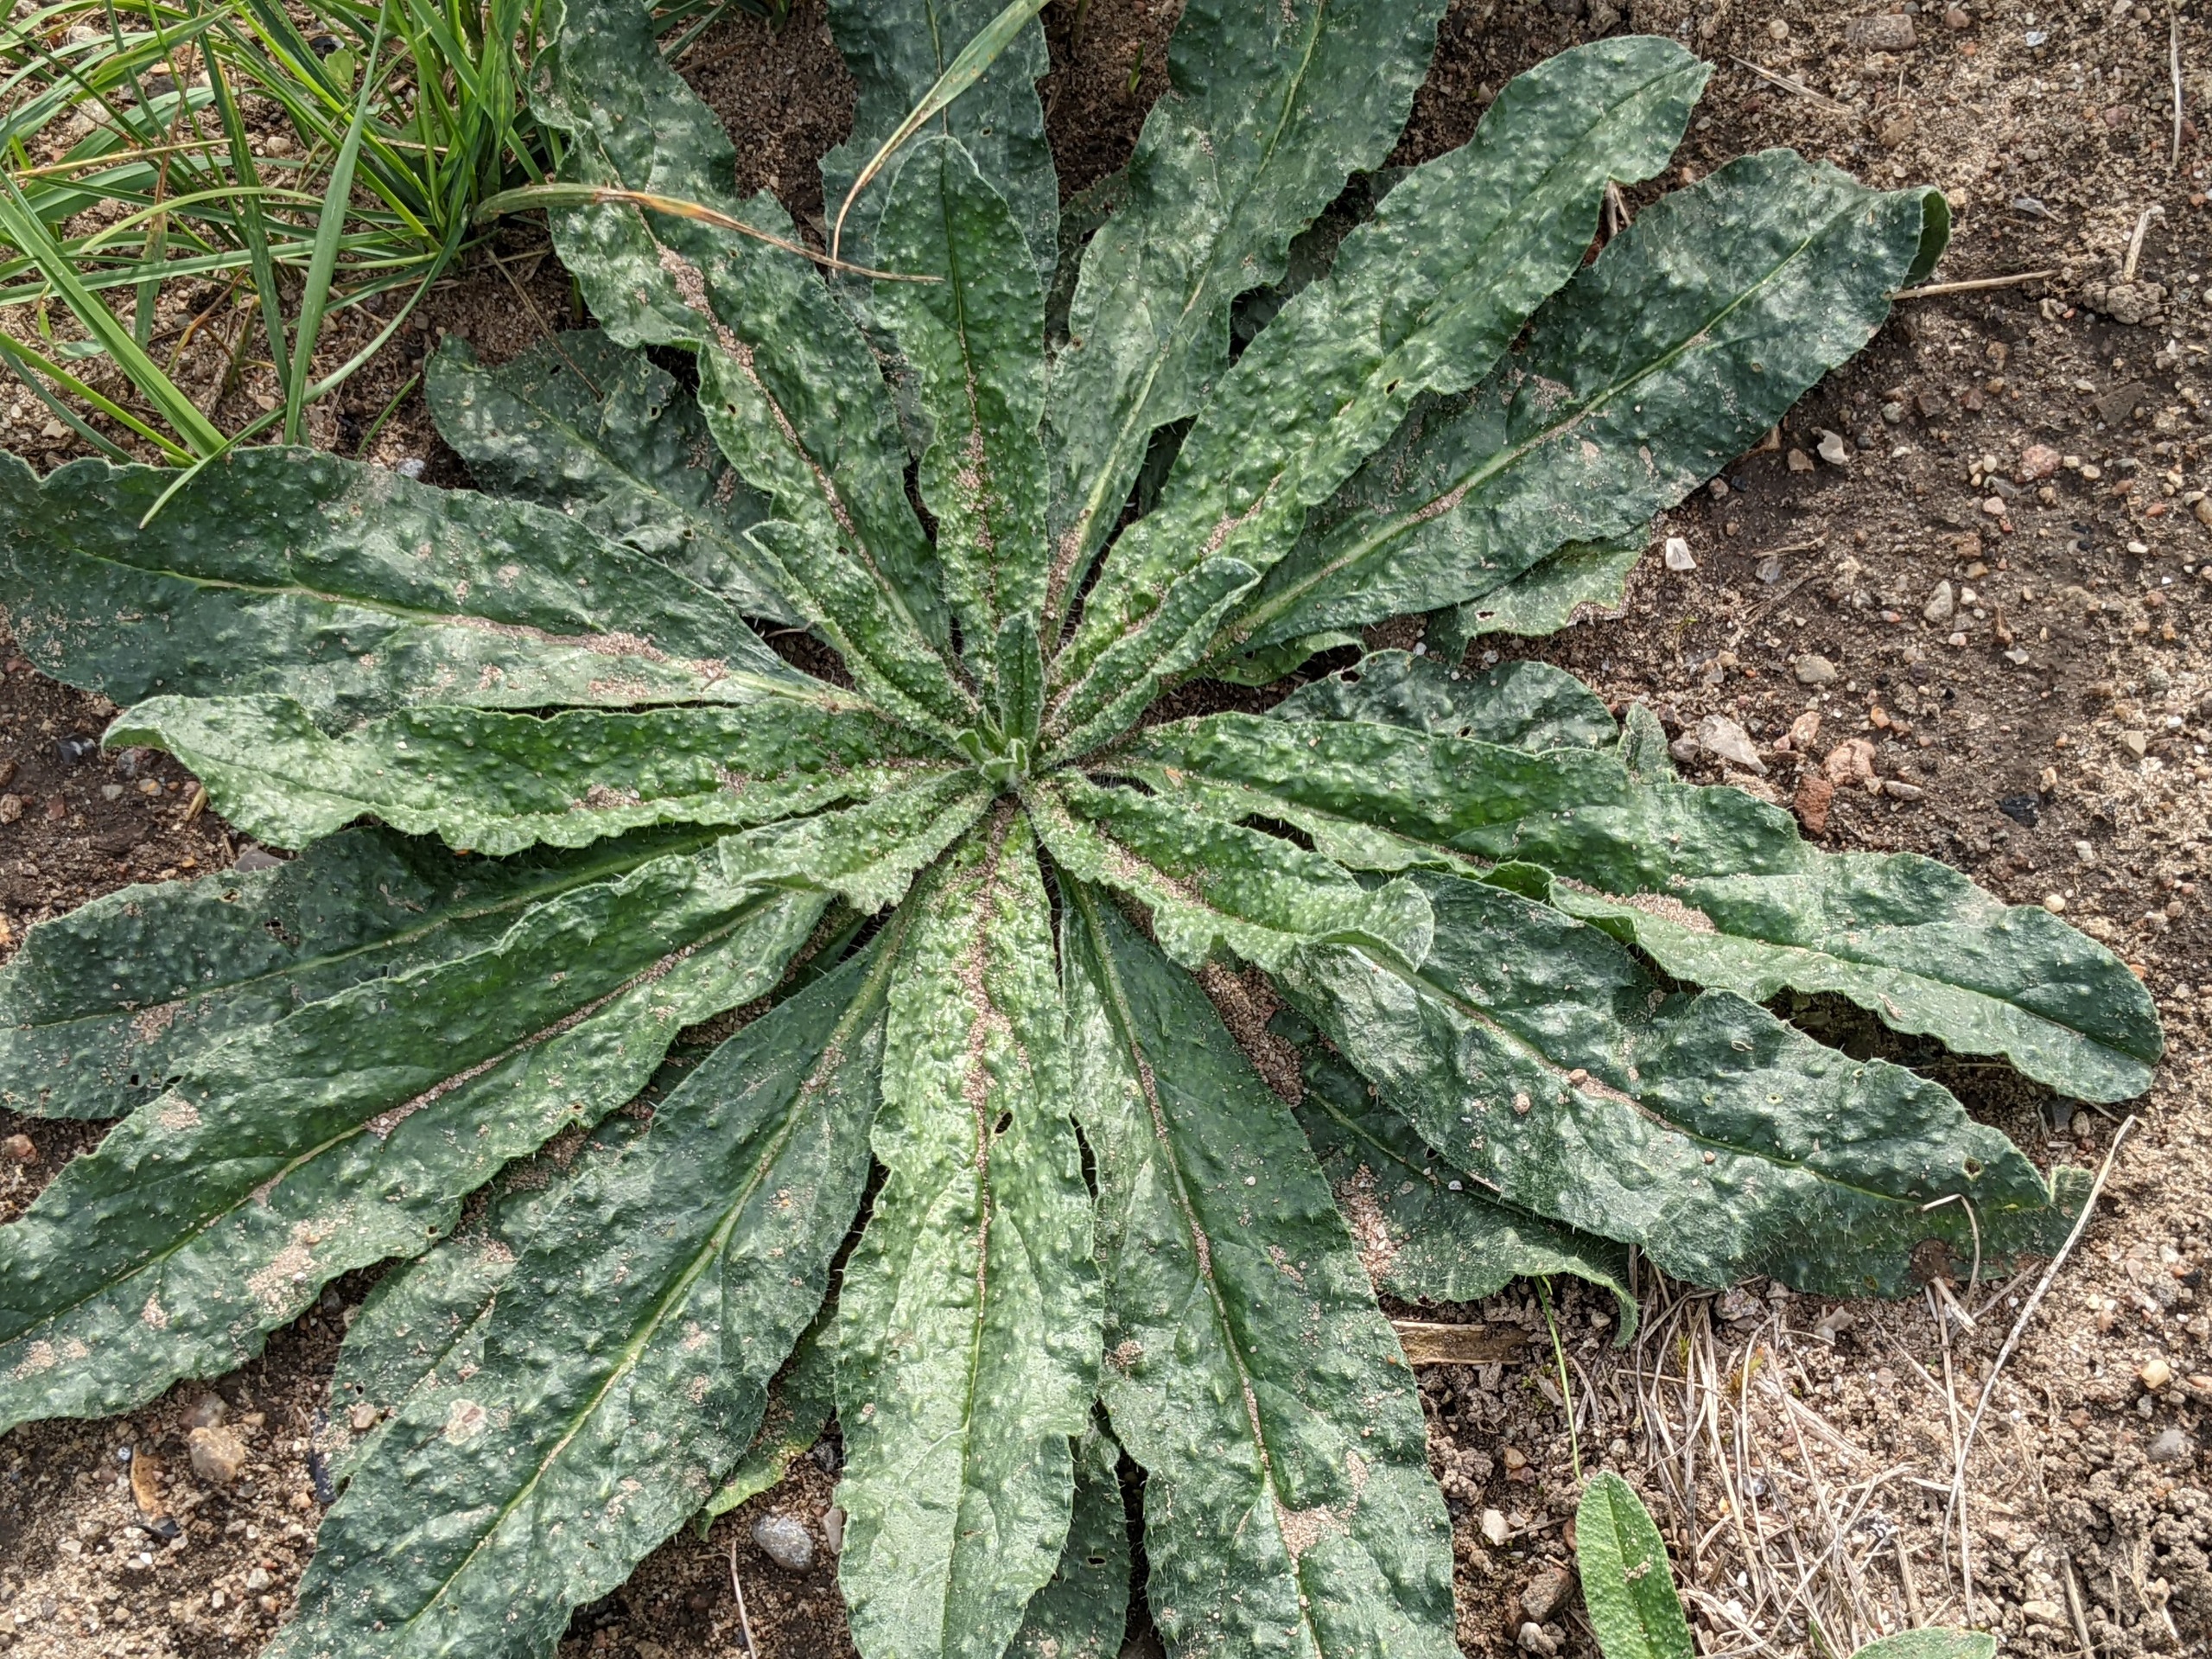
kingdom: Plantae
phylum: Tracheophyta
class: Magnoliopsida
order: Boraginales
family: Boraginaceae
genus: Echium
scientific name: Echium vulgare
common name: Slangehoved
